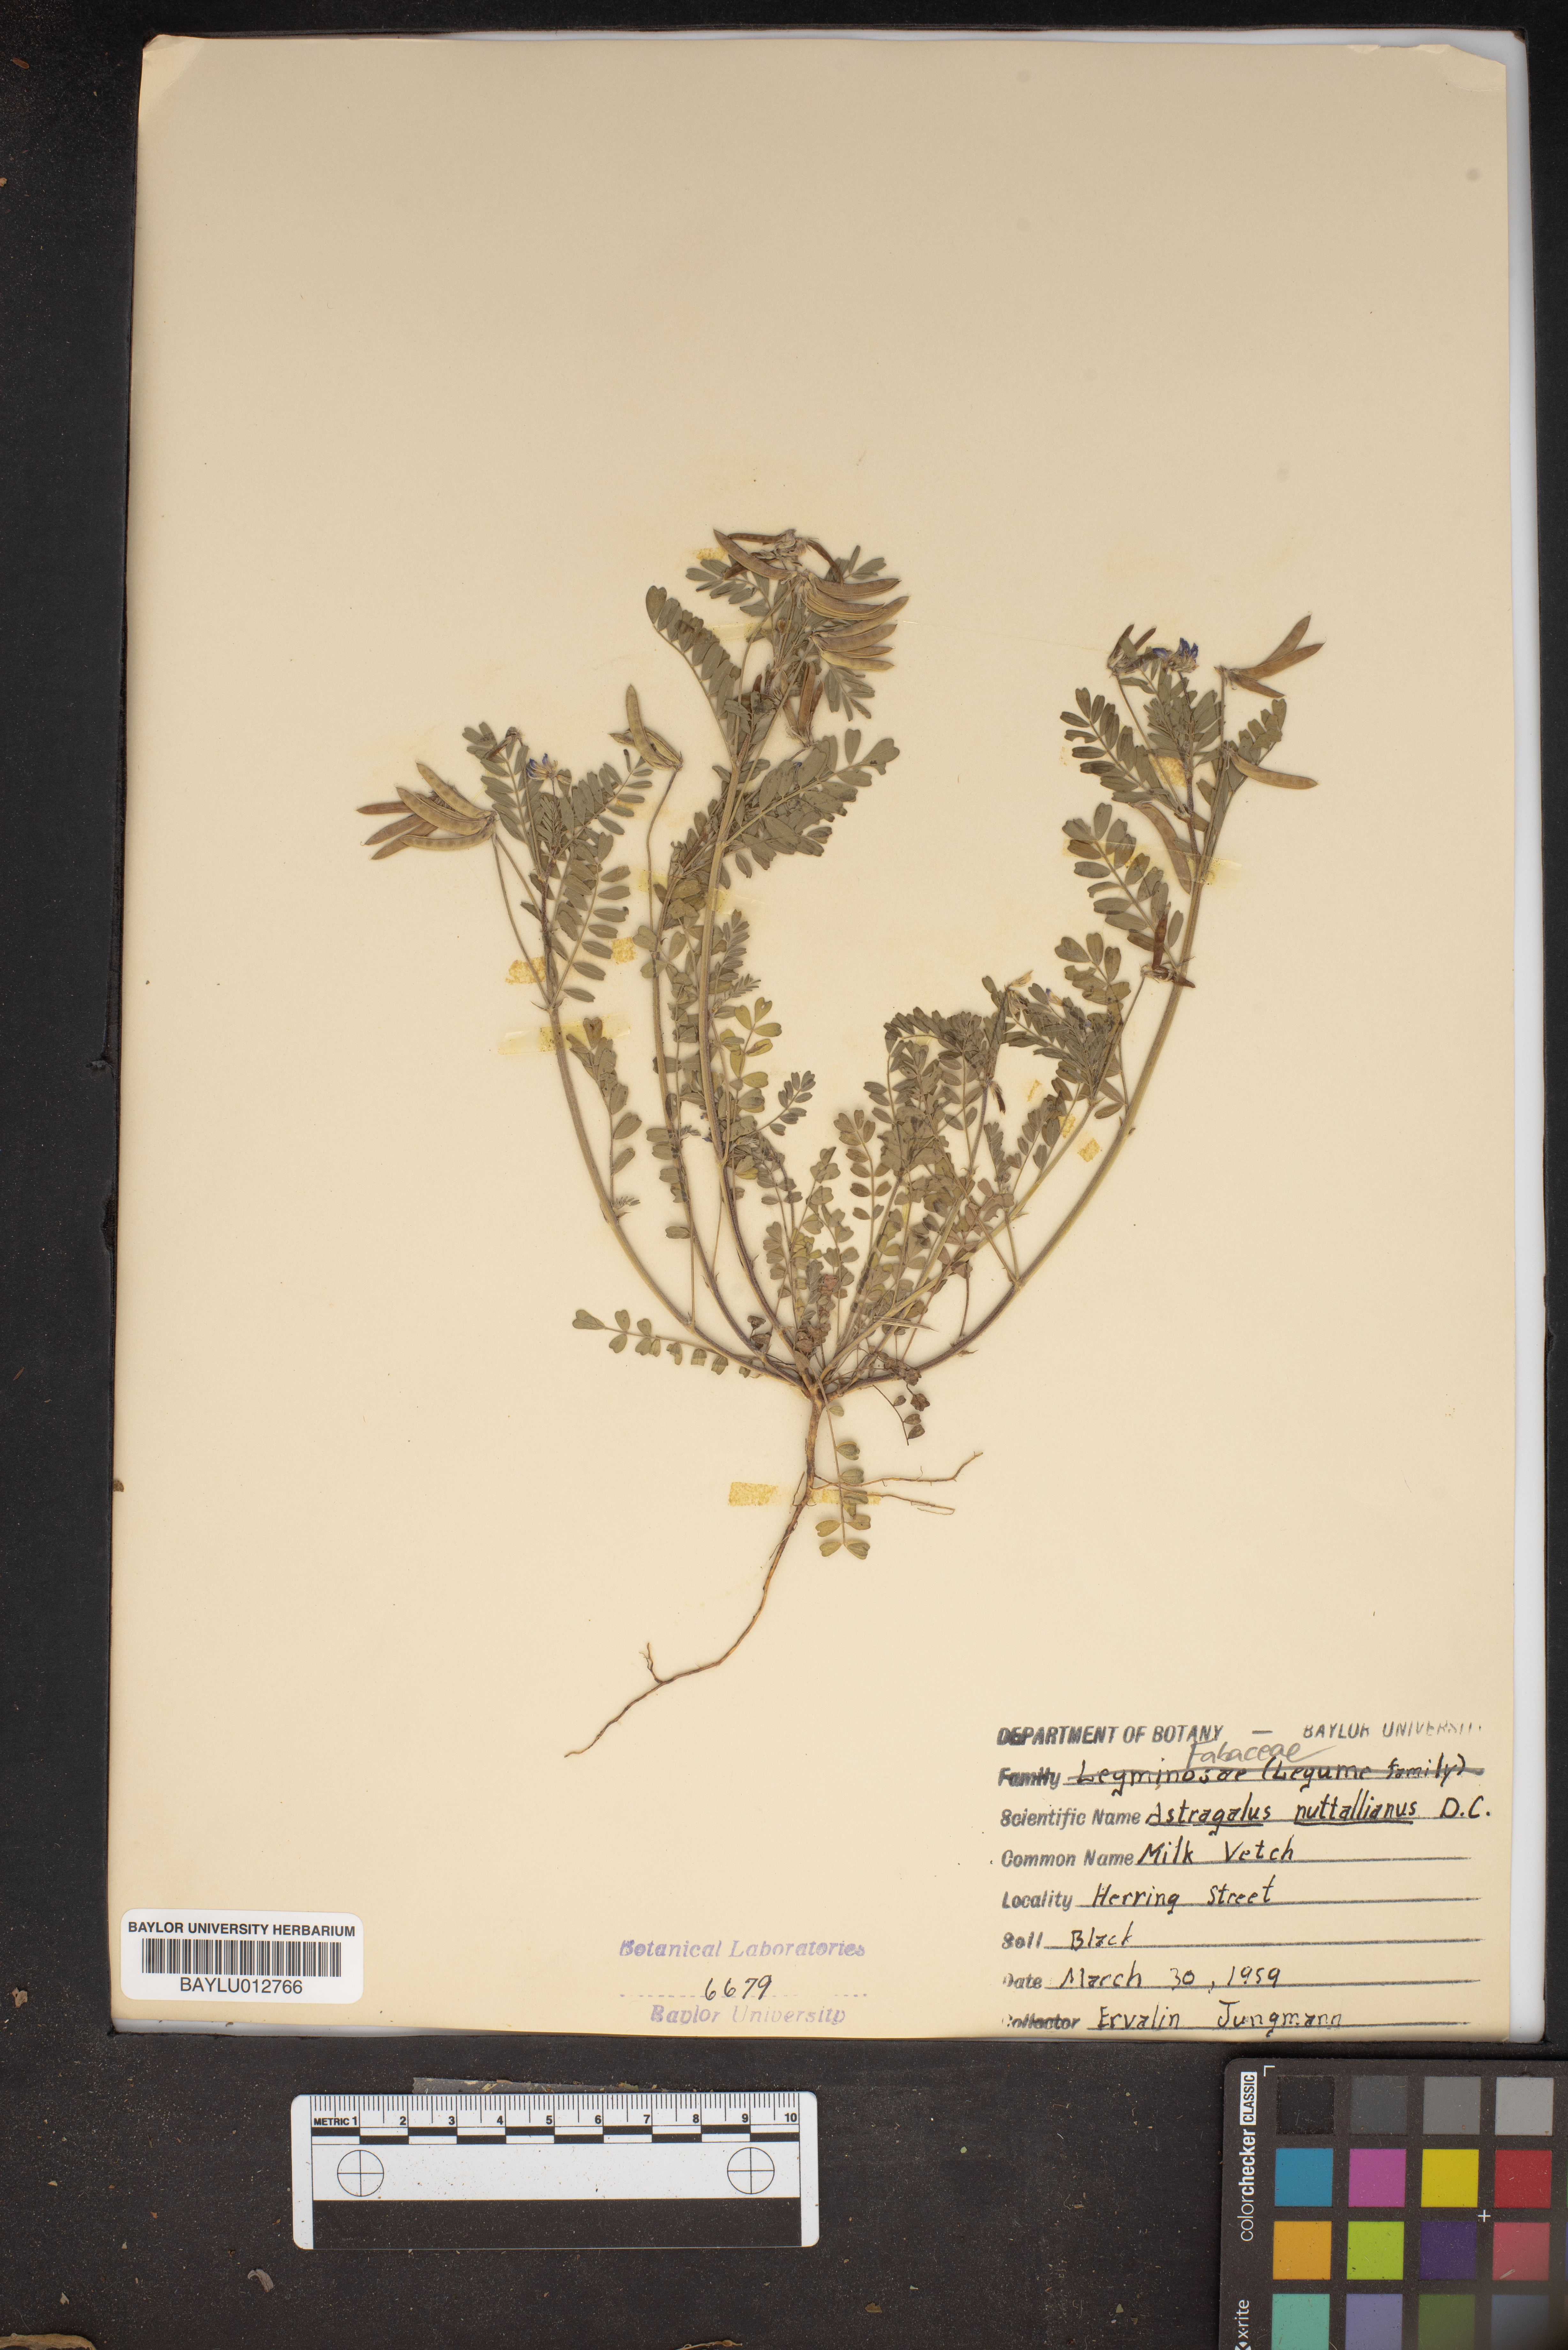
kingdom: Plantae
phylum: Tracheophyta
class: Magnoliopsida
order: Fabales
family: Fabaceae
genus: Astragalus
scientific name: Astragalus nuttallianus
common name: Smallflowered milkvetch
